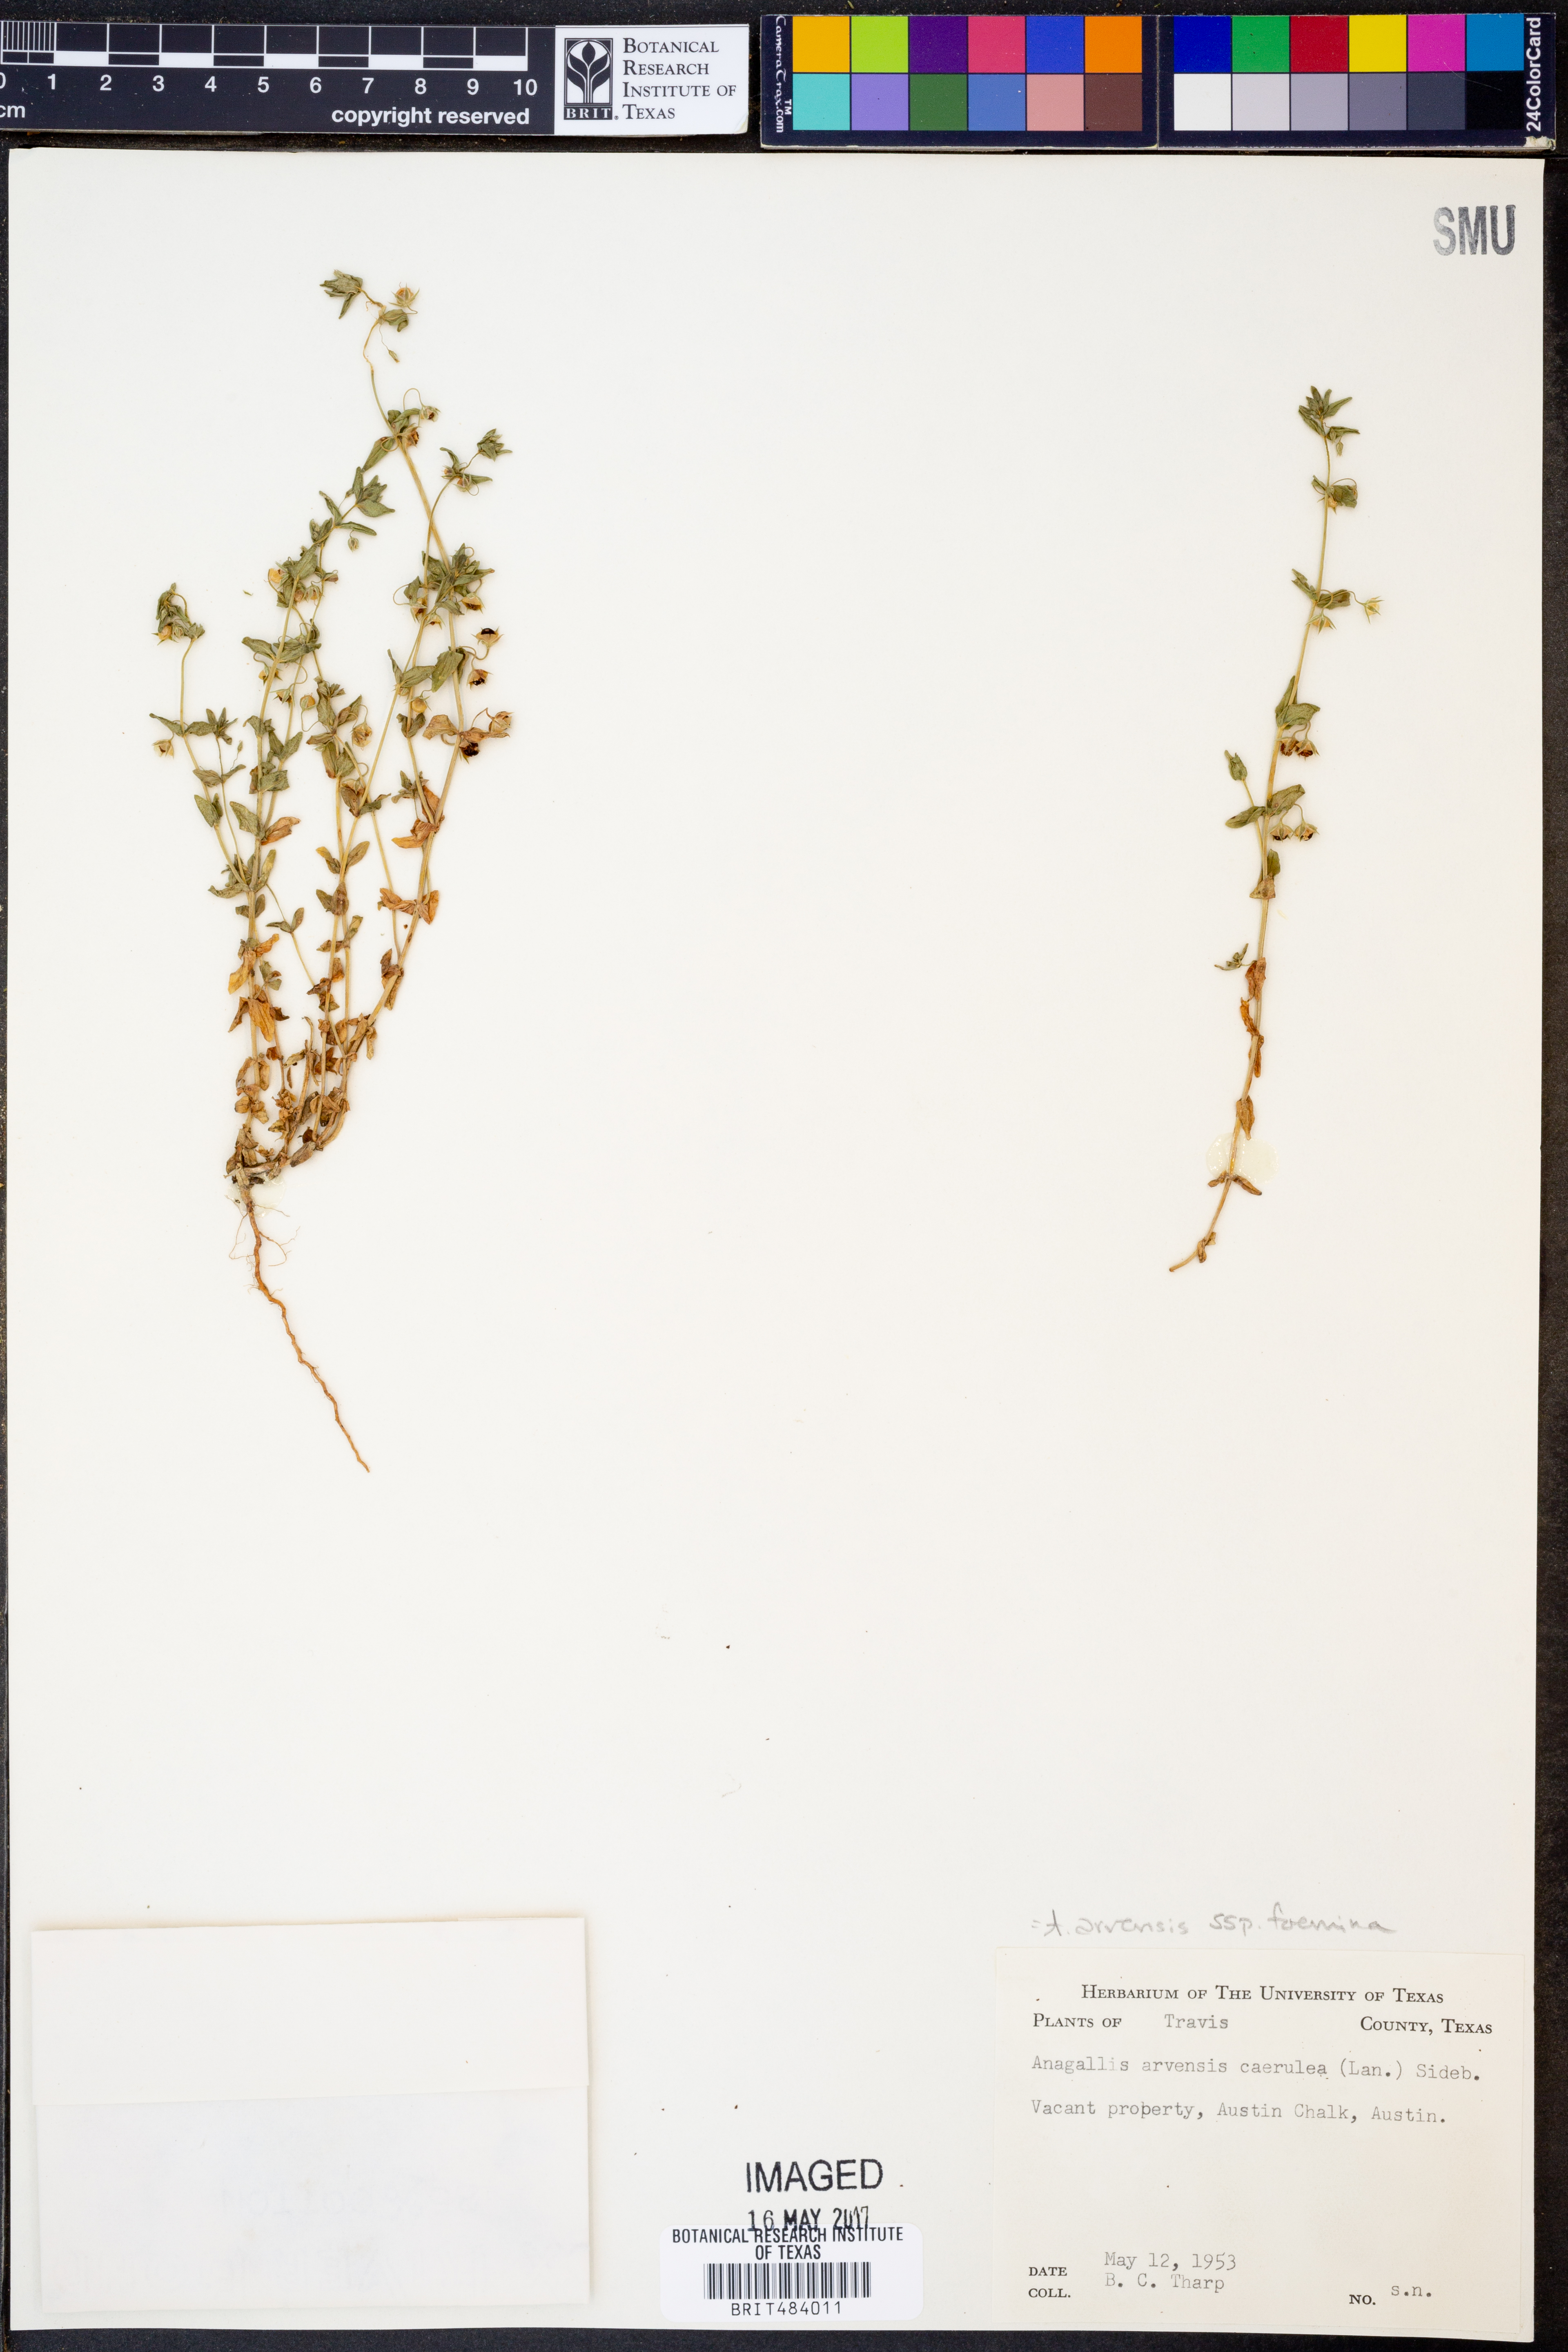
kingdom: Plantae
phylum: Tracheophyta
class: Magnoliopsida
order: Ericales
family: Primulaceae
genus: Lysimachia
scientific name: Lysimachia foemina
